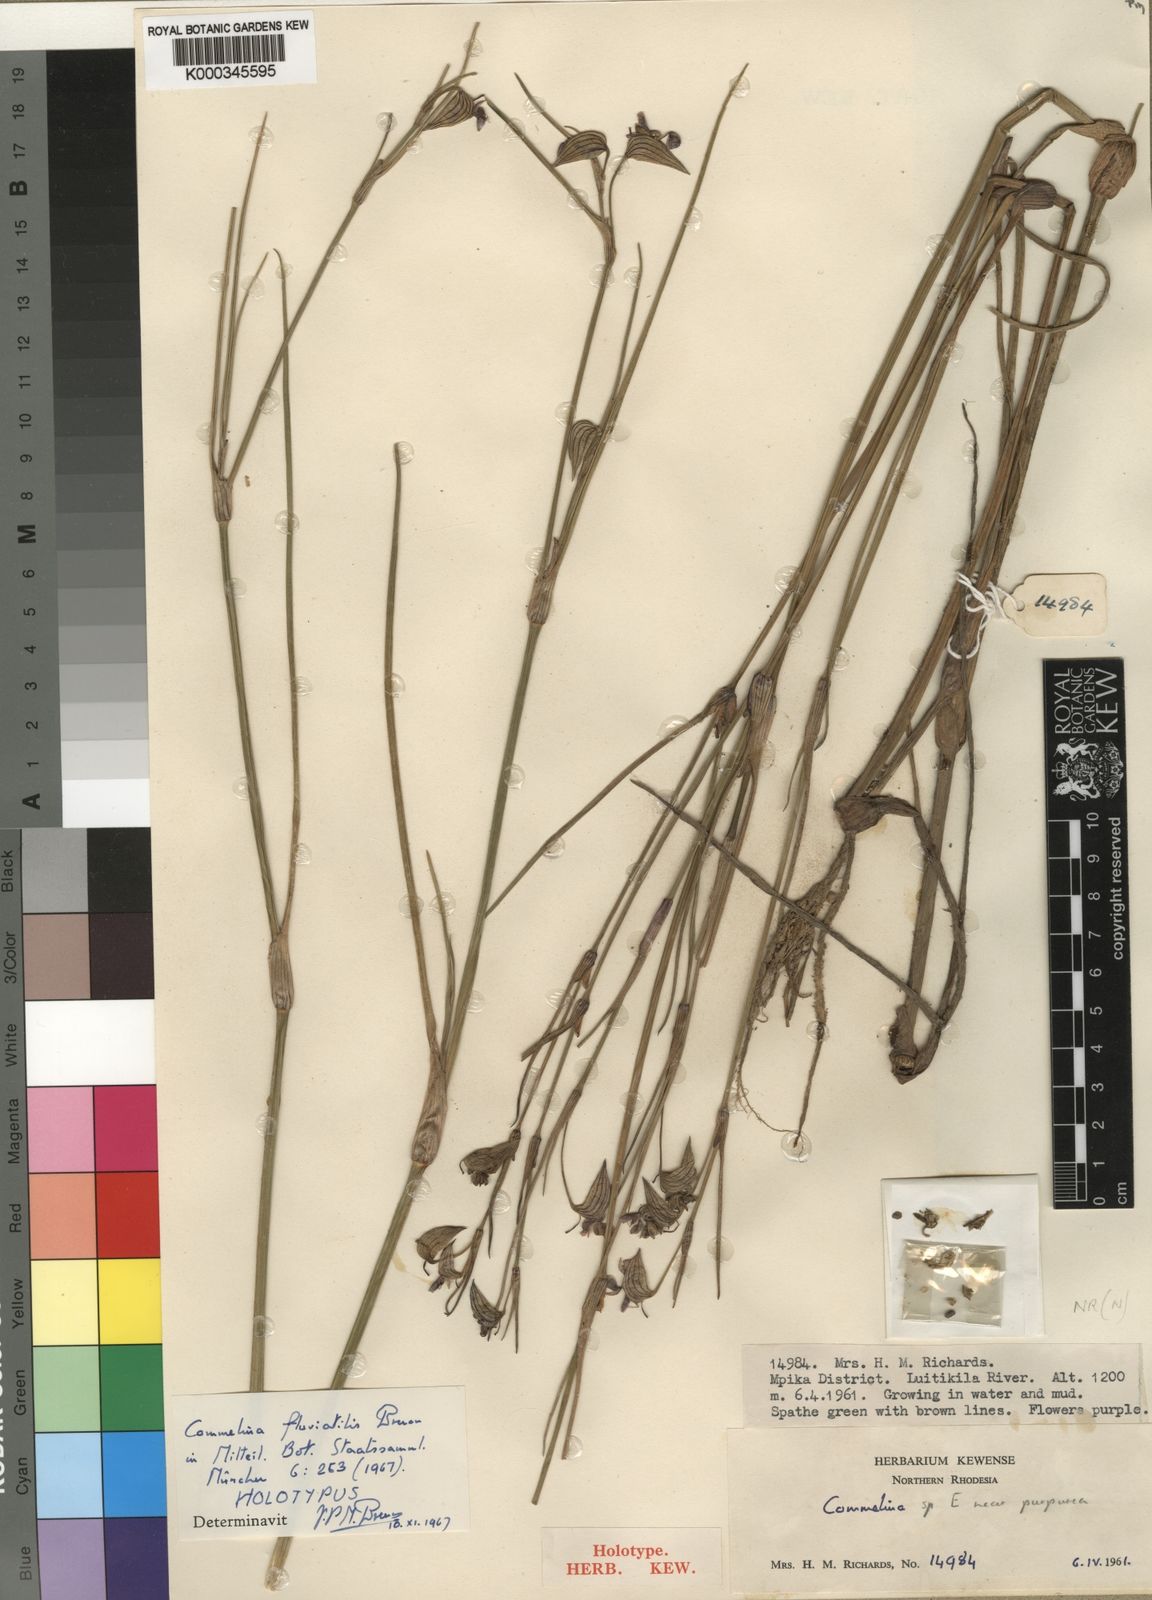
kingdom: Plantae
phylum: Tracheophyta
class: Liliopsida
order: Commelinales
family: Commelinaceae
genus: Commelina
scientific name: Commelina fluviatilis
